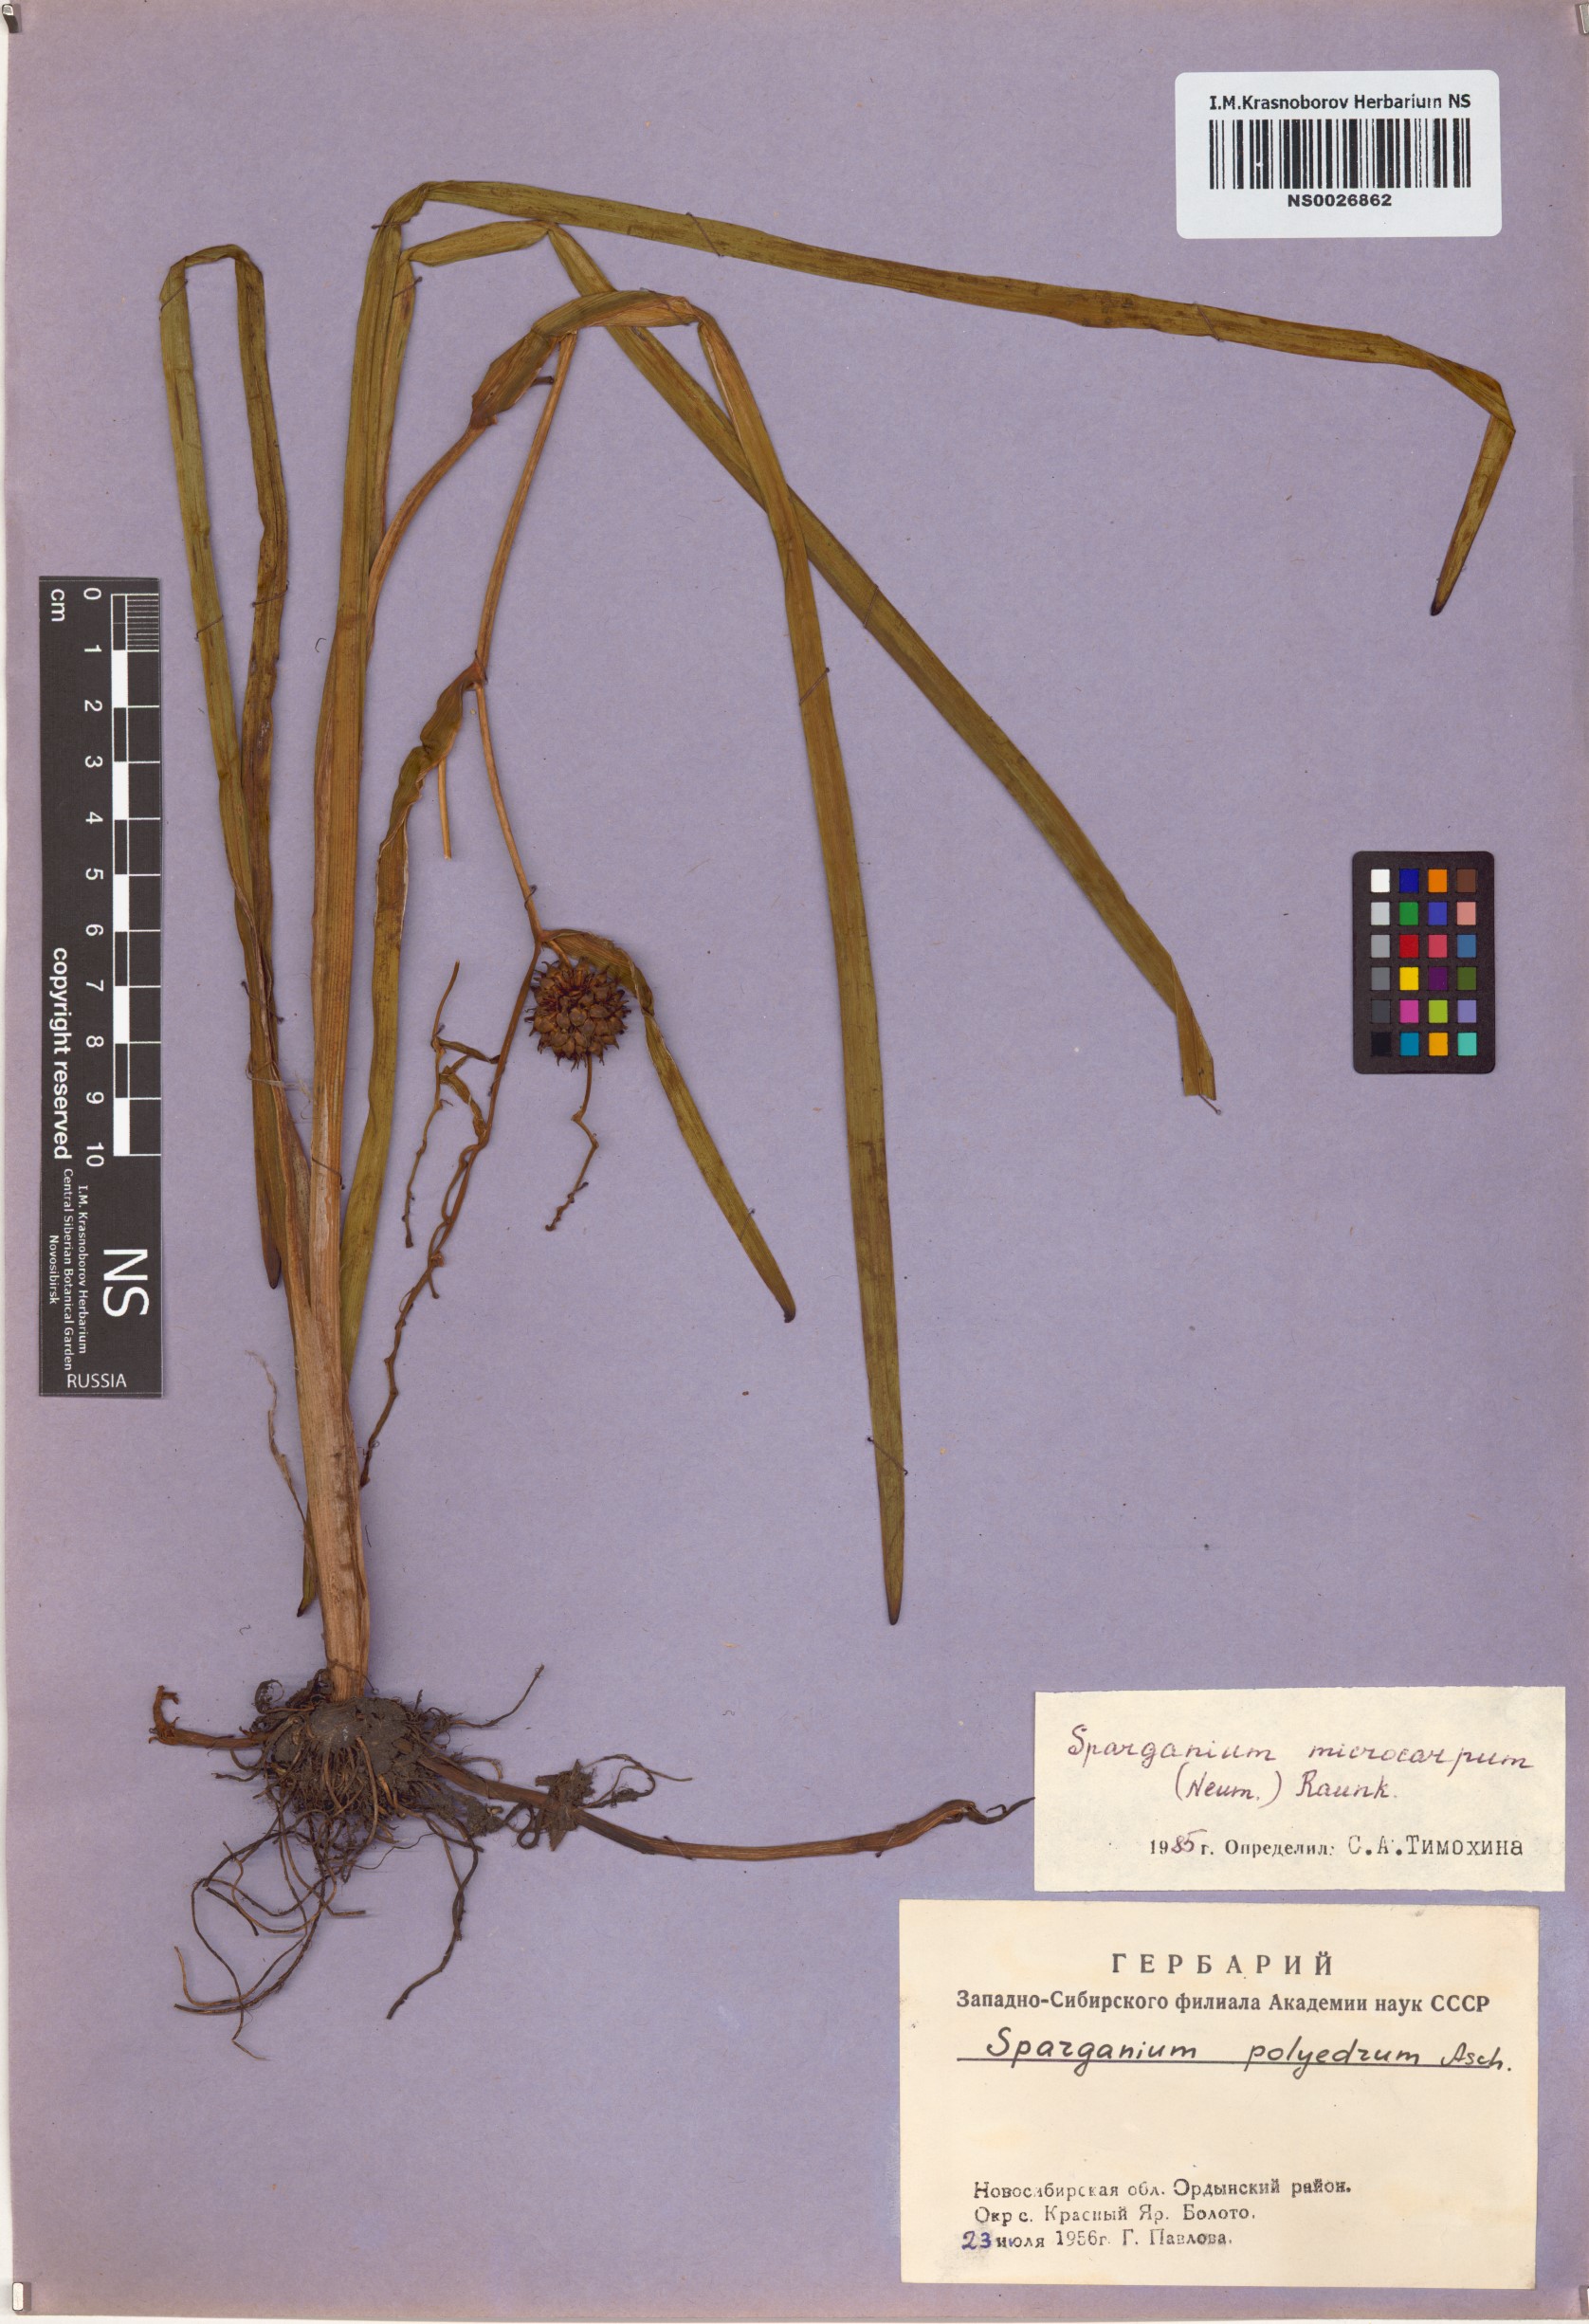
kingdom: Plantae
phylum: Tracheophyta
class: Liliopsida
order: Poales
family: Typhaceae
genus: Sparganium
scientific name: Sparganium erectum
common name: Branched bur-reed
